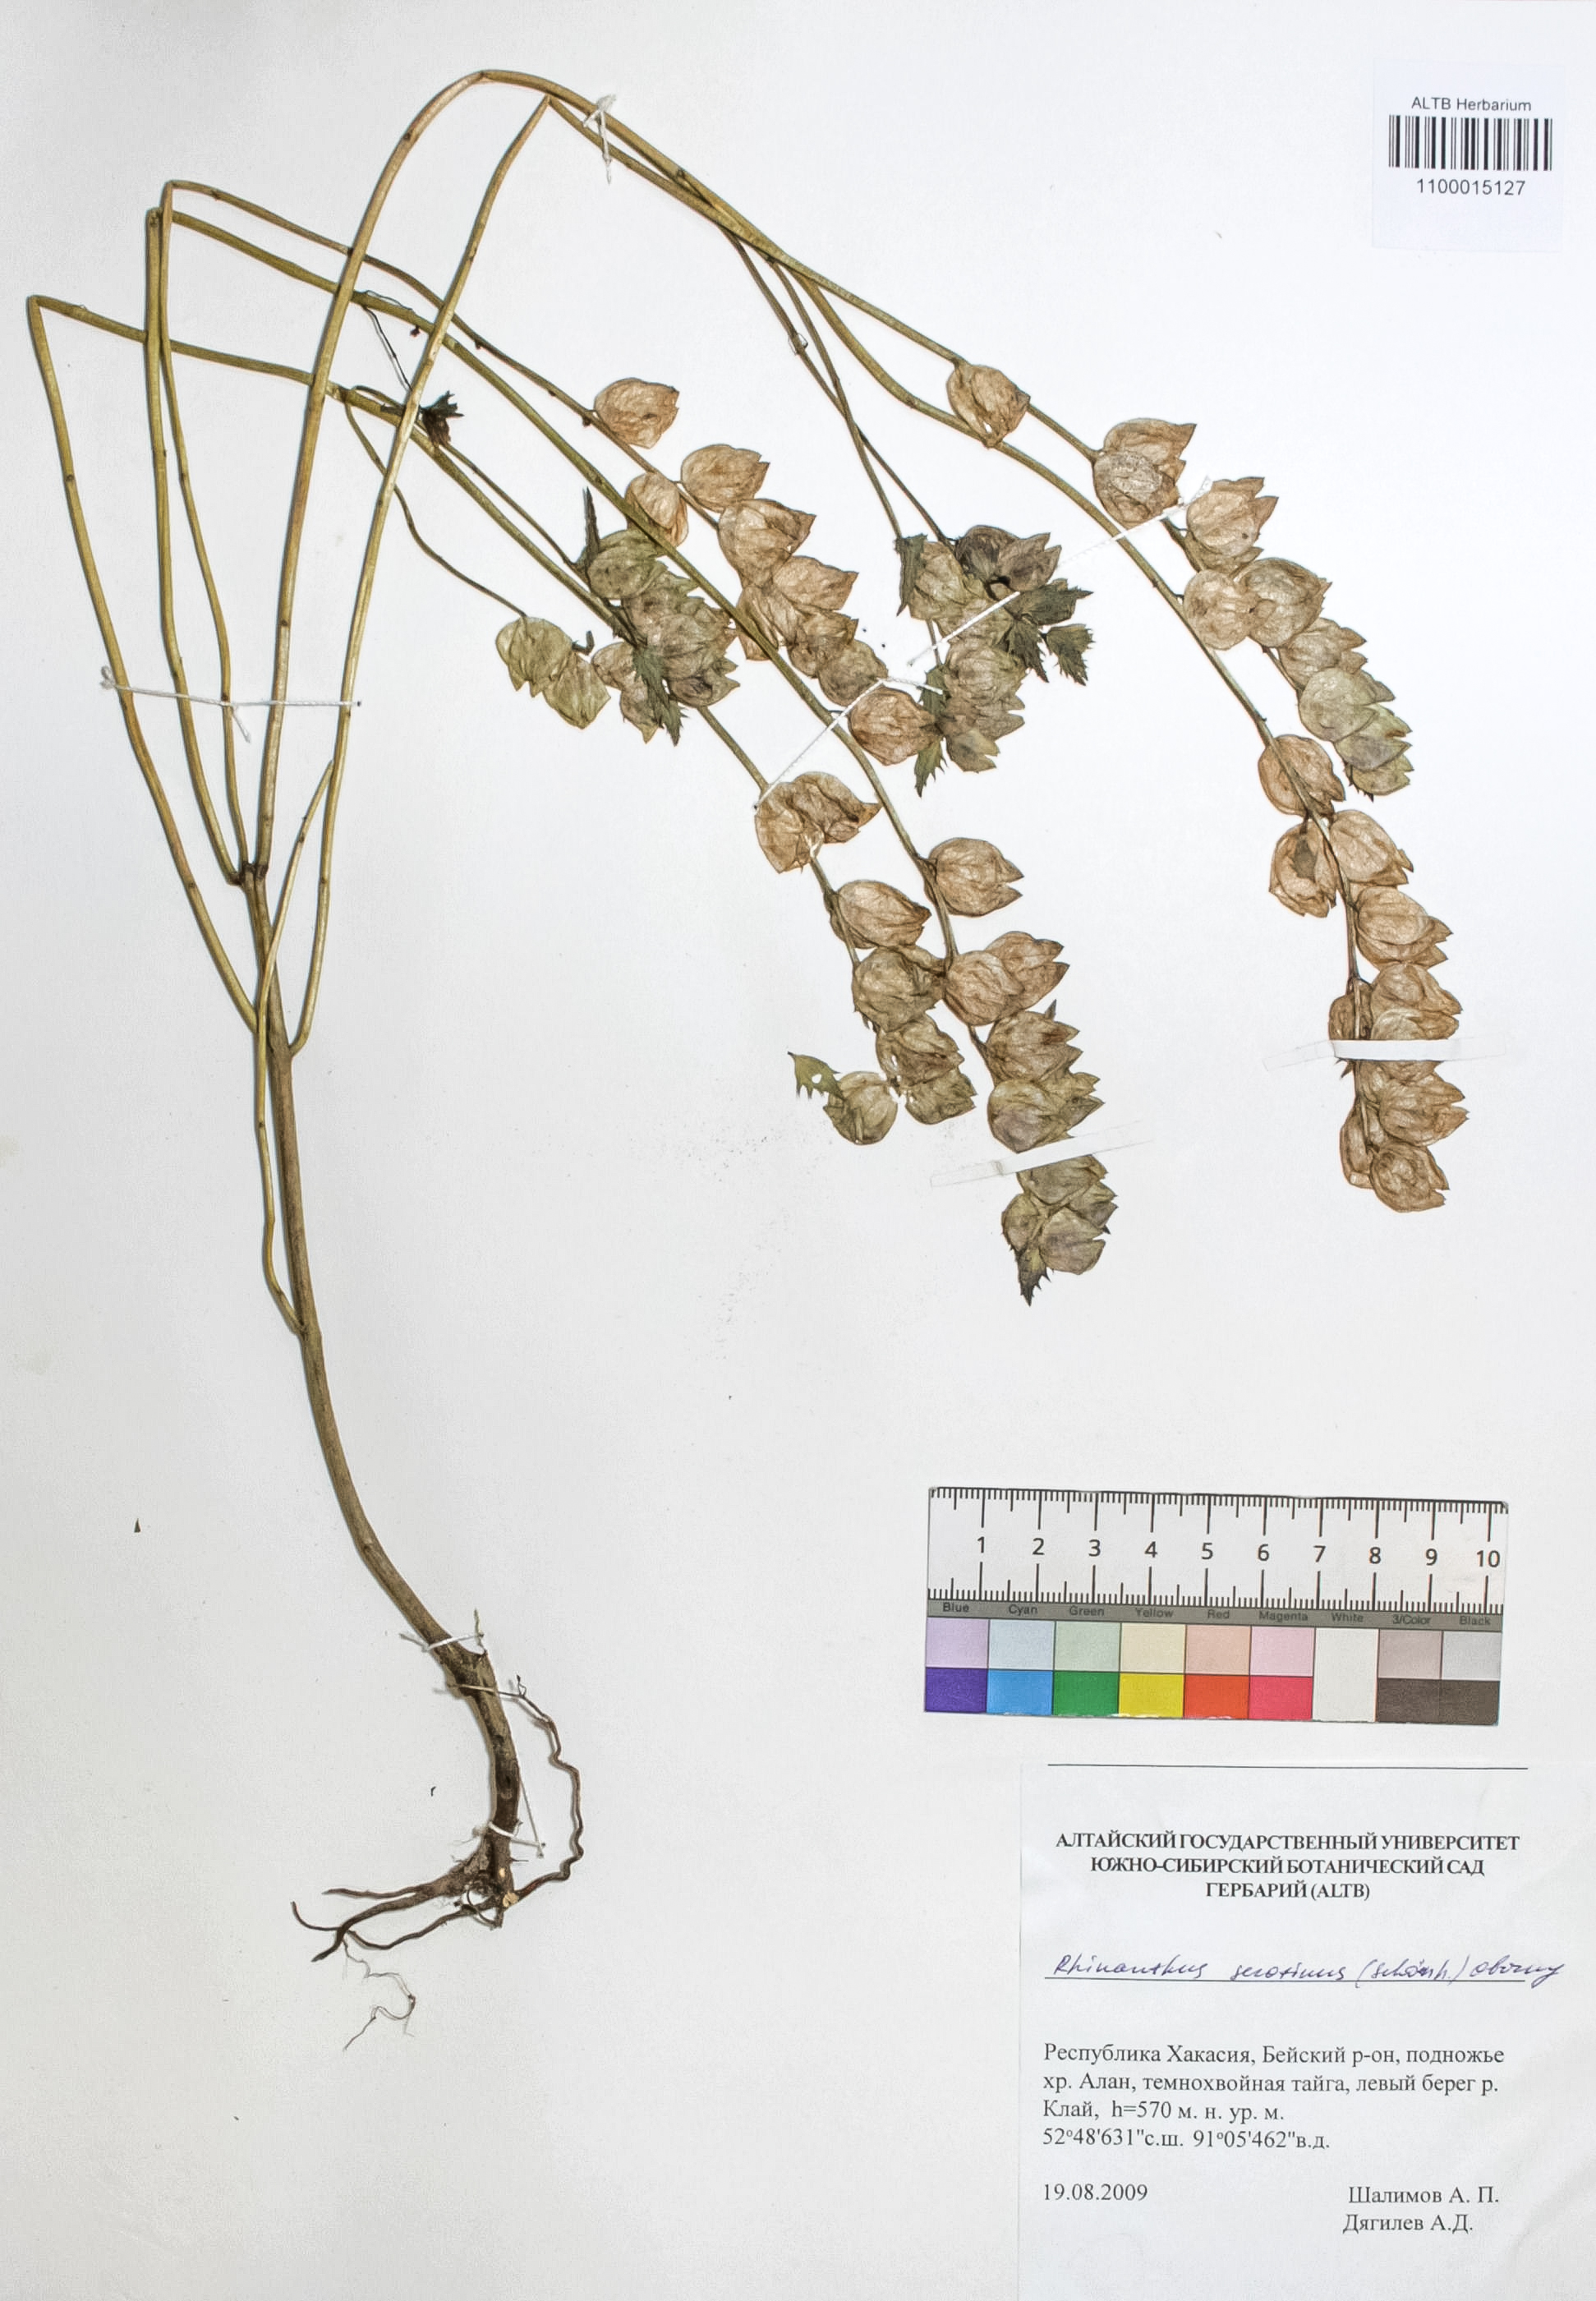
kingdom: Plantae
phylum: Tracheophyta
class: Magnoliopsida
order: Lamiales
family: Orobanchaceae
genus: Rhinanthus
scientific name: Rhinanthus serotinus
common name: Late-flowering yellow rattle
